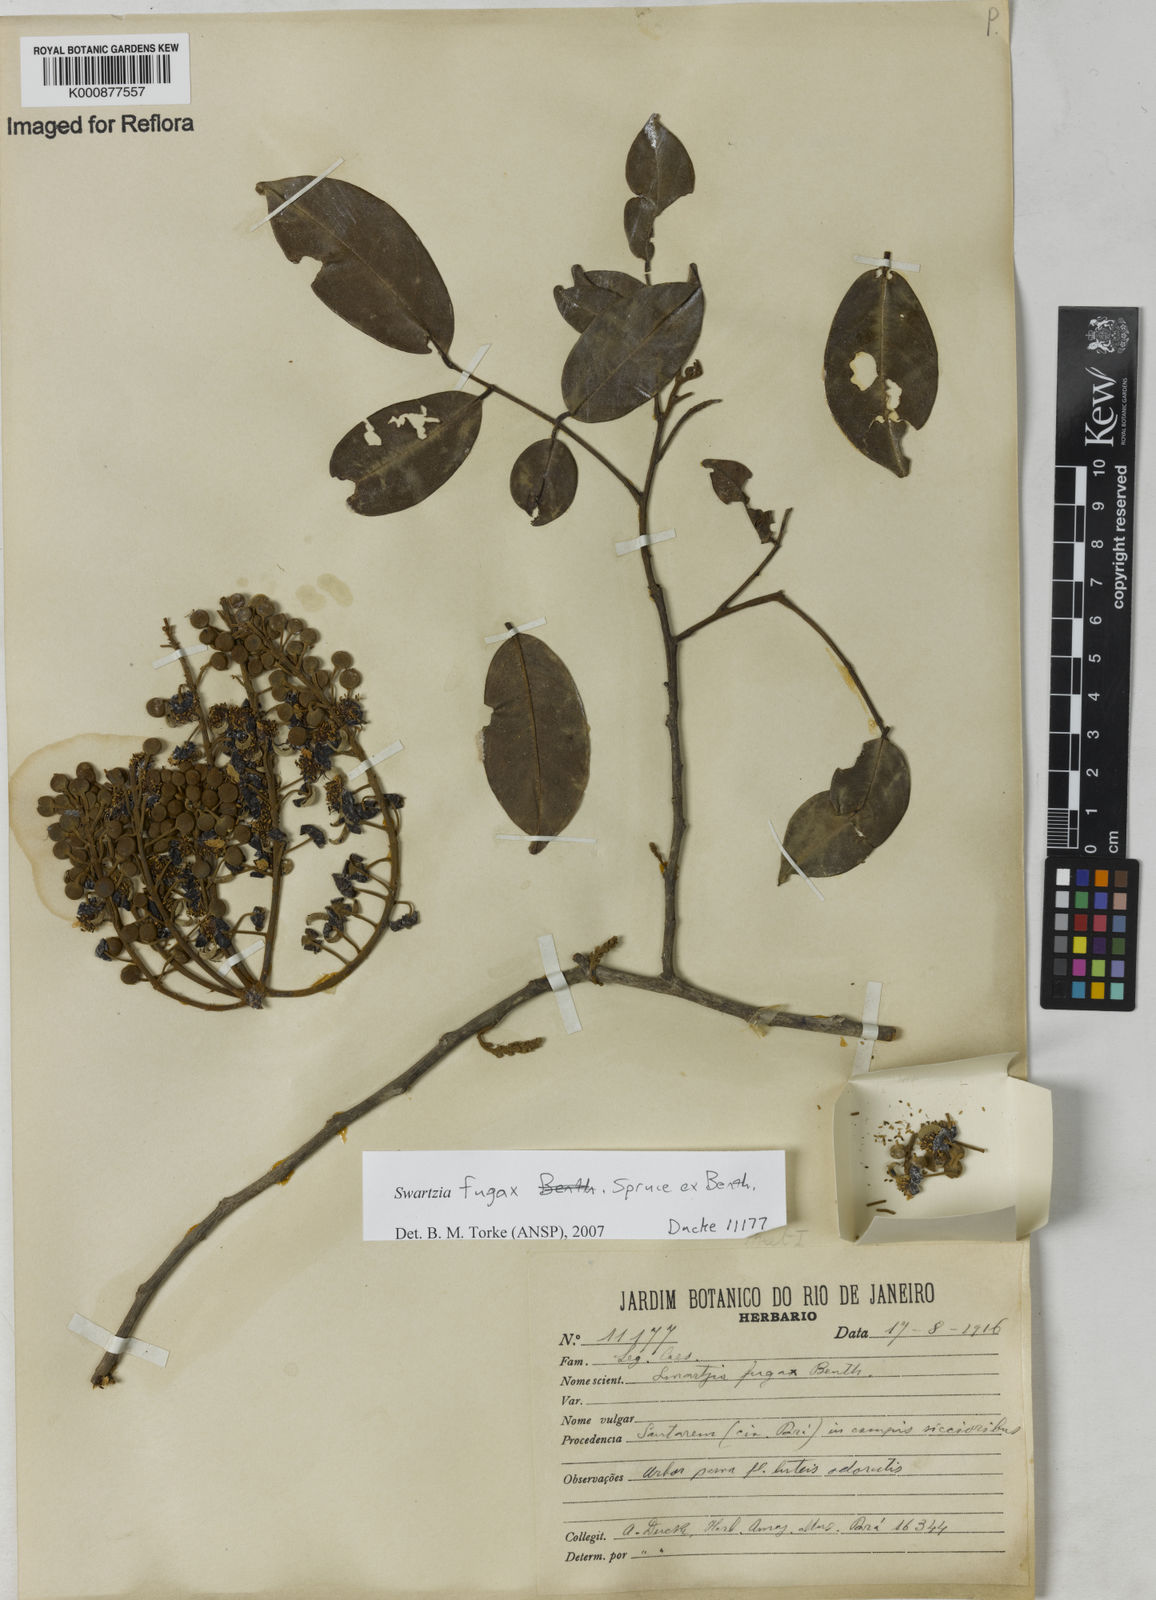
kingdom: Plantae
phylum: Tracheophyta
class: Magnoliopsida
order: Fabales
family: Fabaceae
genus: Swartzia
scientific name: Swartzia leptopetala
